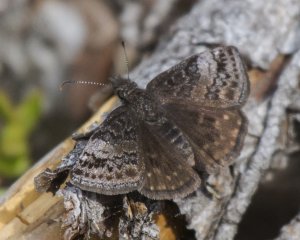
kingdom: Animalia
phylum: Arthropoda
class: Insecta
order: Lepidoptera
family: Hesperiidae
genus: Erynnis
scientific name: Erynnis icelus
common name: Dreamy Duskywing
